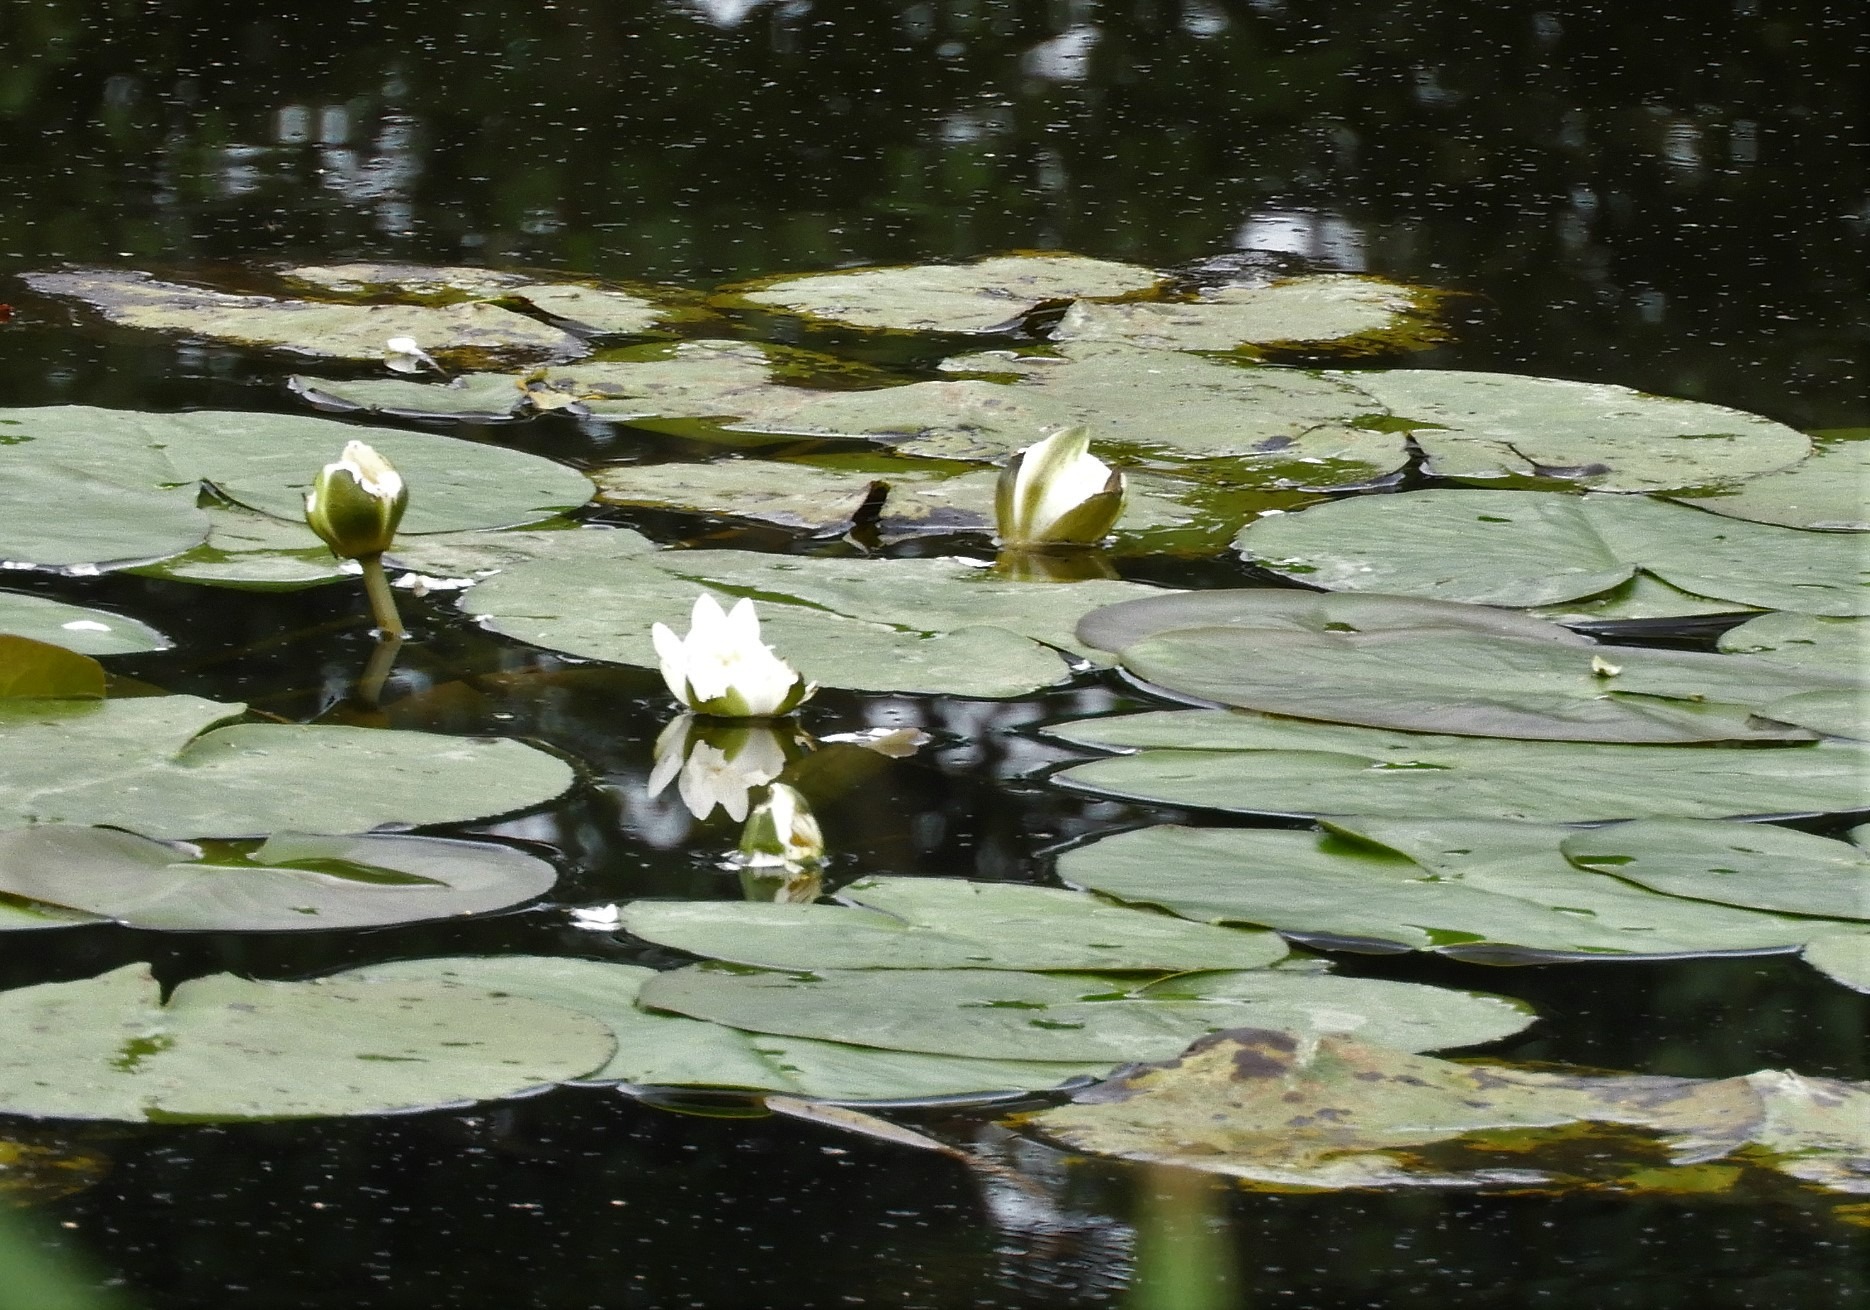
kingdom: Plantae
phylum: Tracheophyta
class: Magnoliopsida
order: Nymphaeales
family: Nymphaeaceae
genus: Nymphaea
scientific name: Nymphaea alba
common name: Hvid åkande
